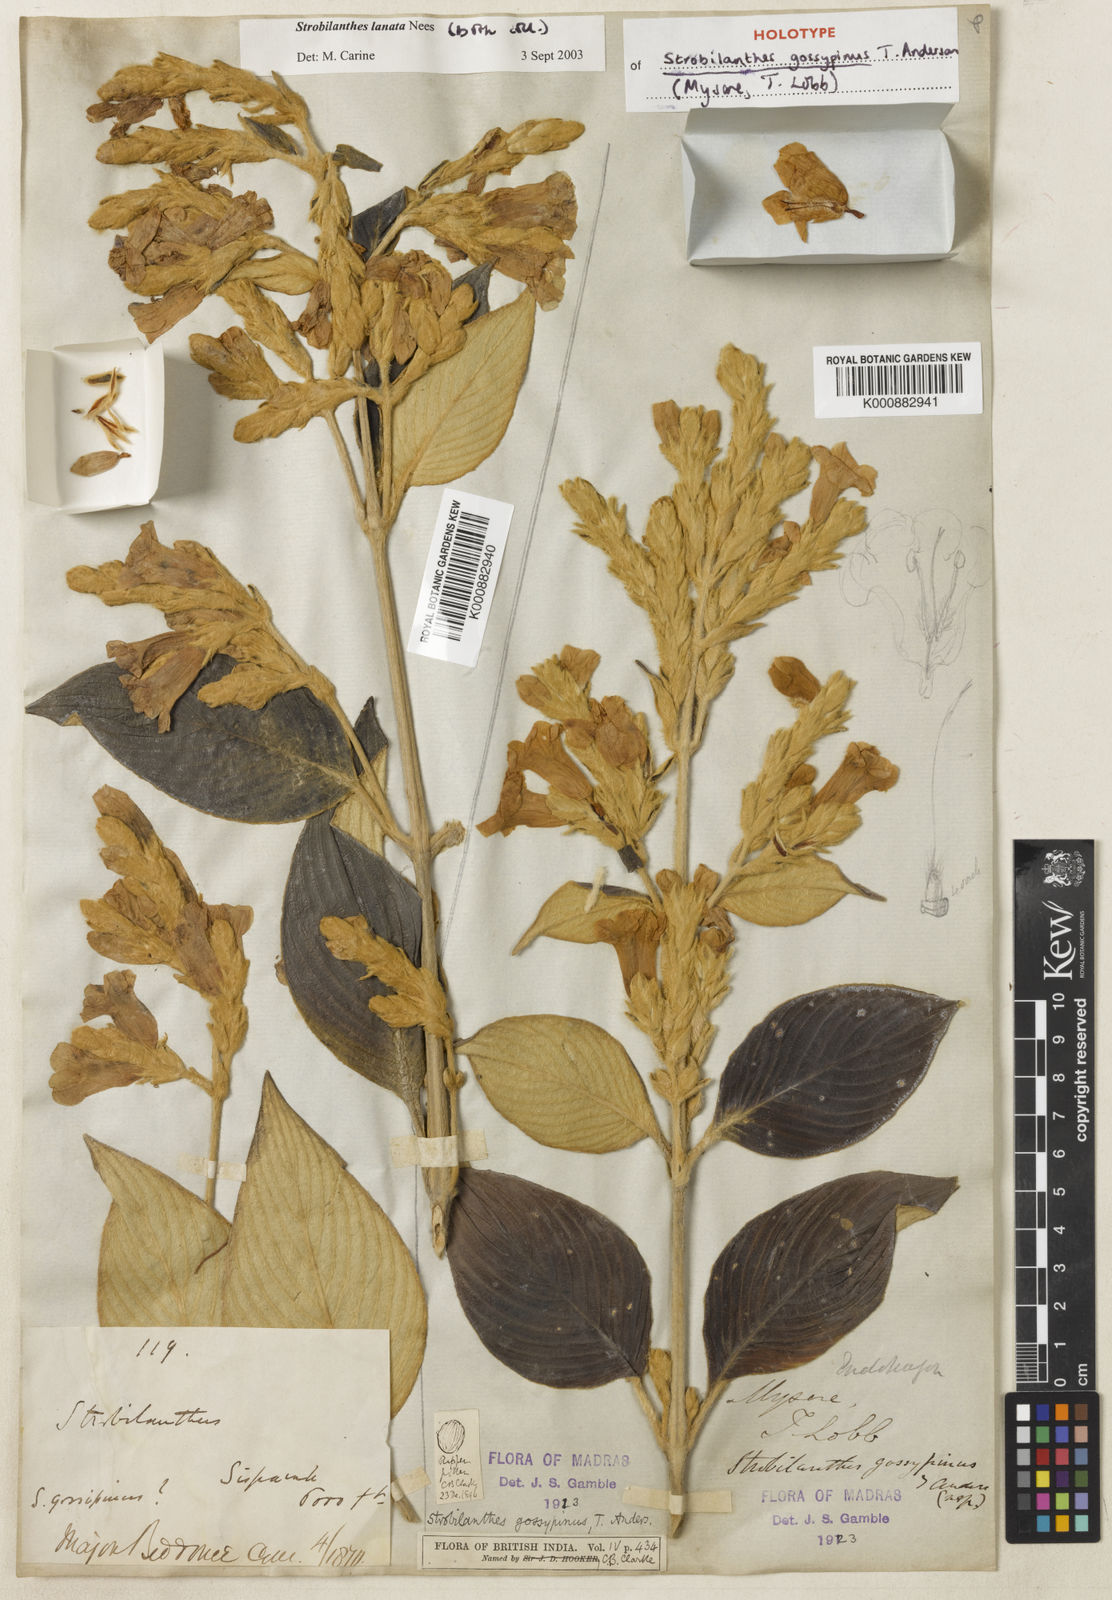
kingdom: Plantae
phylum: Tracheophyta
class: Magnoliopsida
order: Lamiales
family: Acanthaceae
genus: Strobilanthes
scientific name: Strobilanthes lanata
